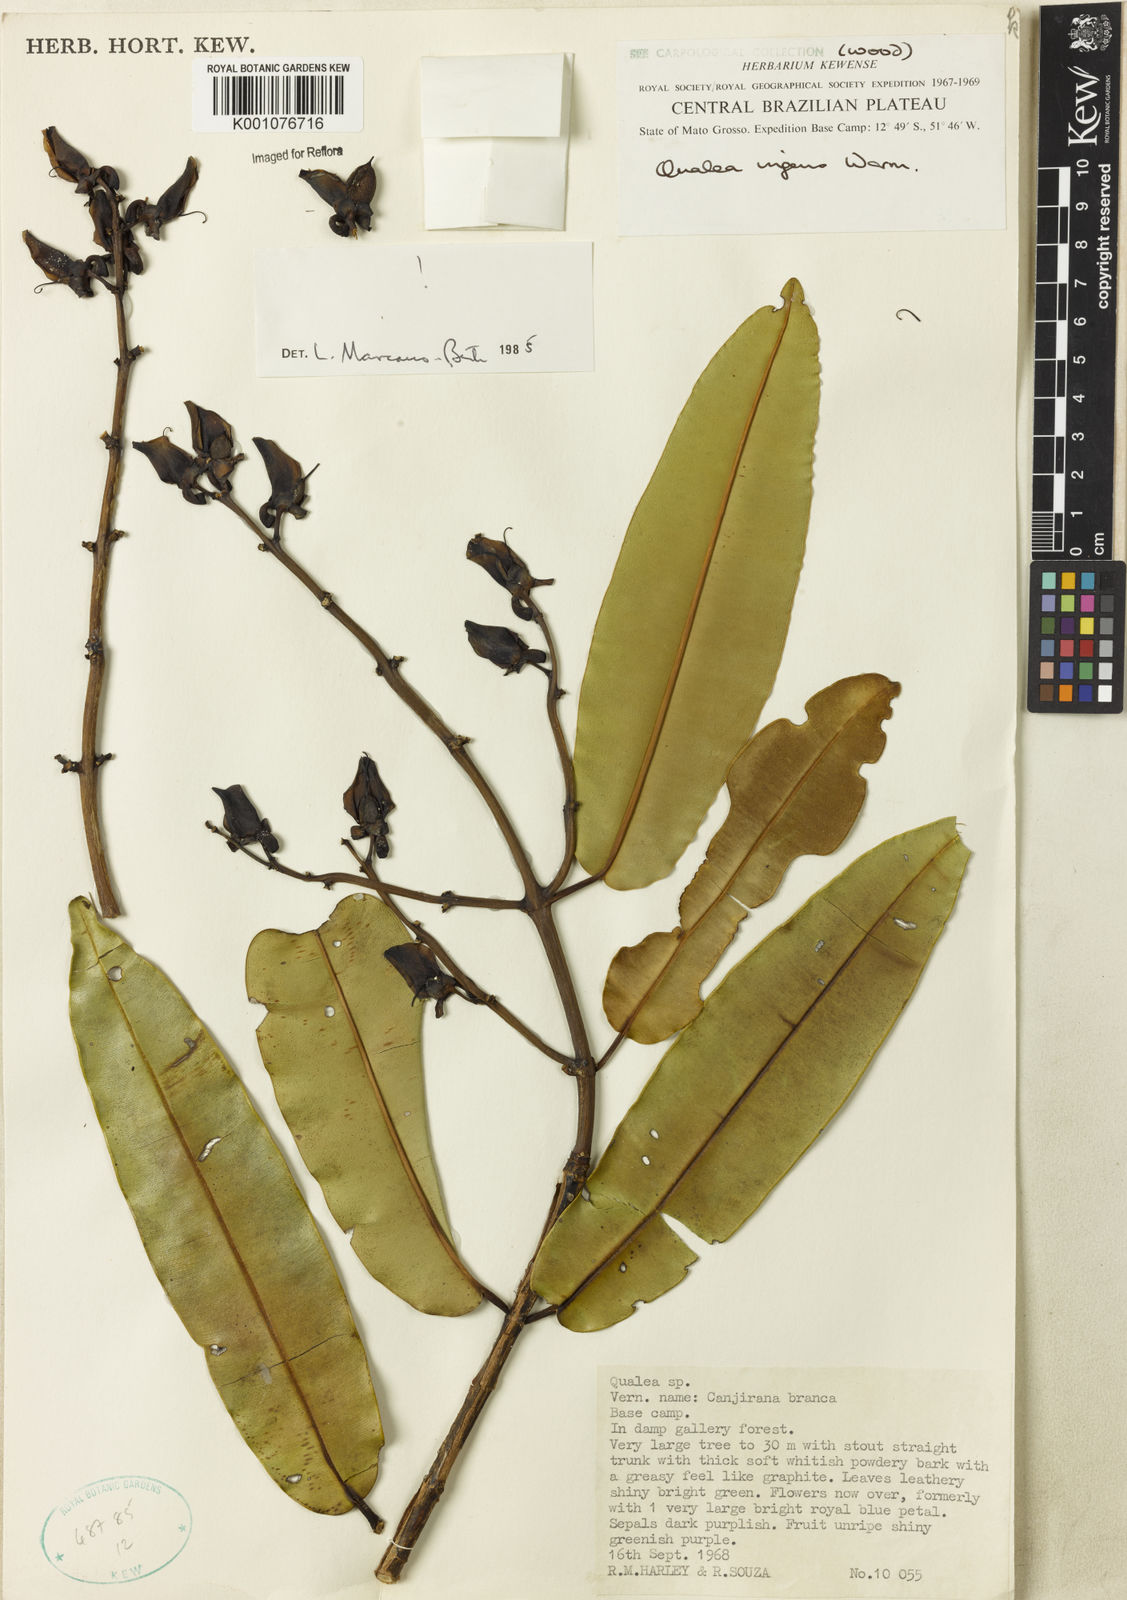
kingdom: Plantae
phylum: Tracheophyta
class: Magnoliopsida
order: Myrtales
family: Vochysiaceae
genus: Qualea
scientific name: Qualea ingens
